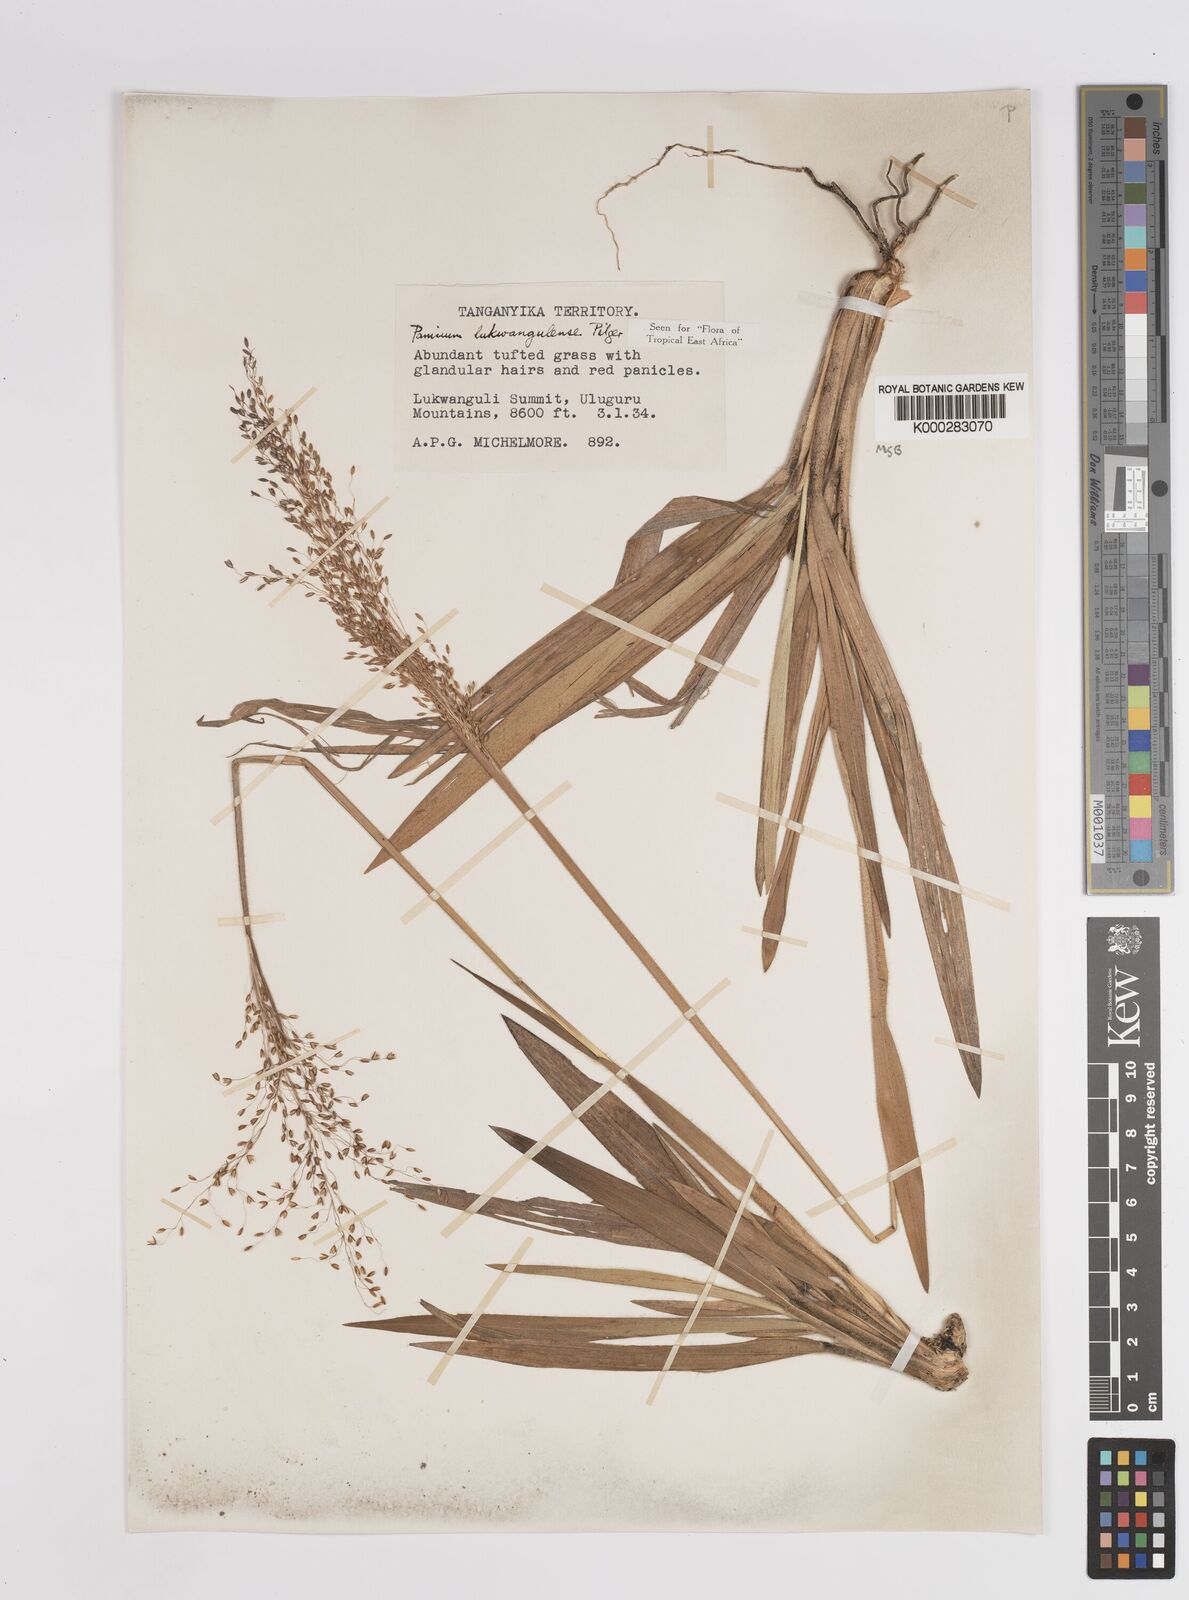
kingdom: Plantae
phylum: Tracheophyta
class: Liliopsida
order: Poales
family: Poaceae
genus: Adenochloa
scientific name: Adenochloa lukwangulense
